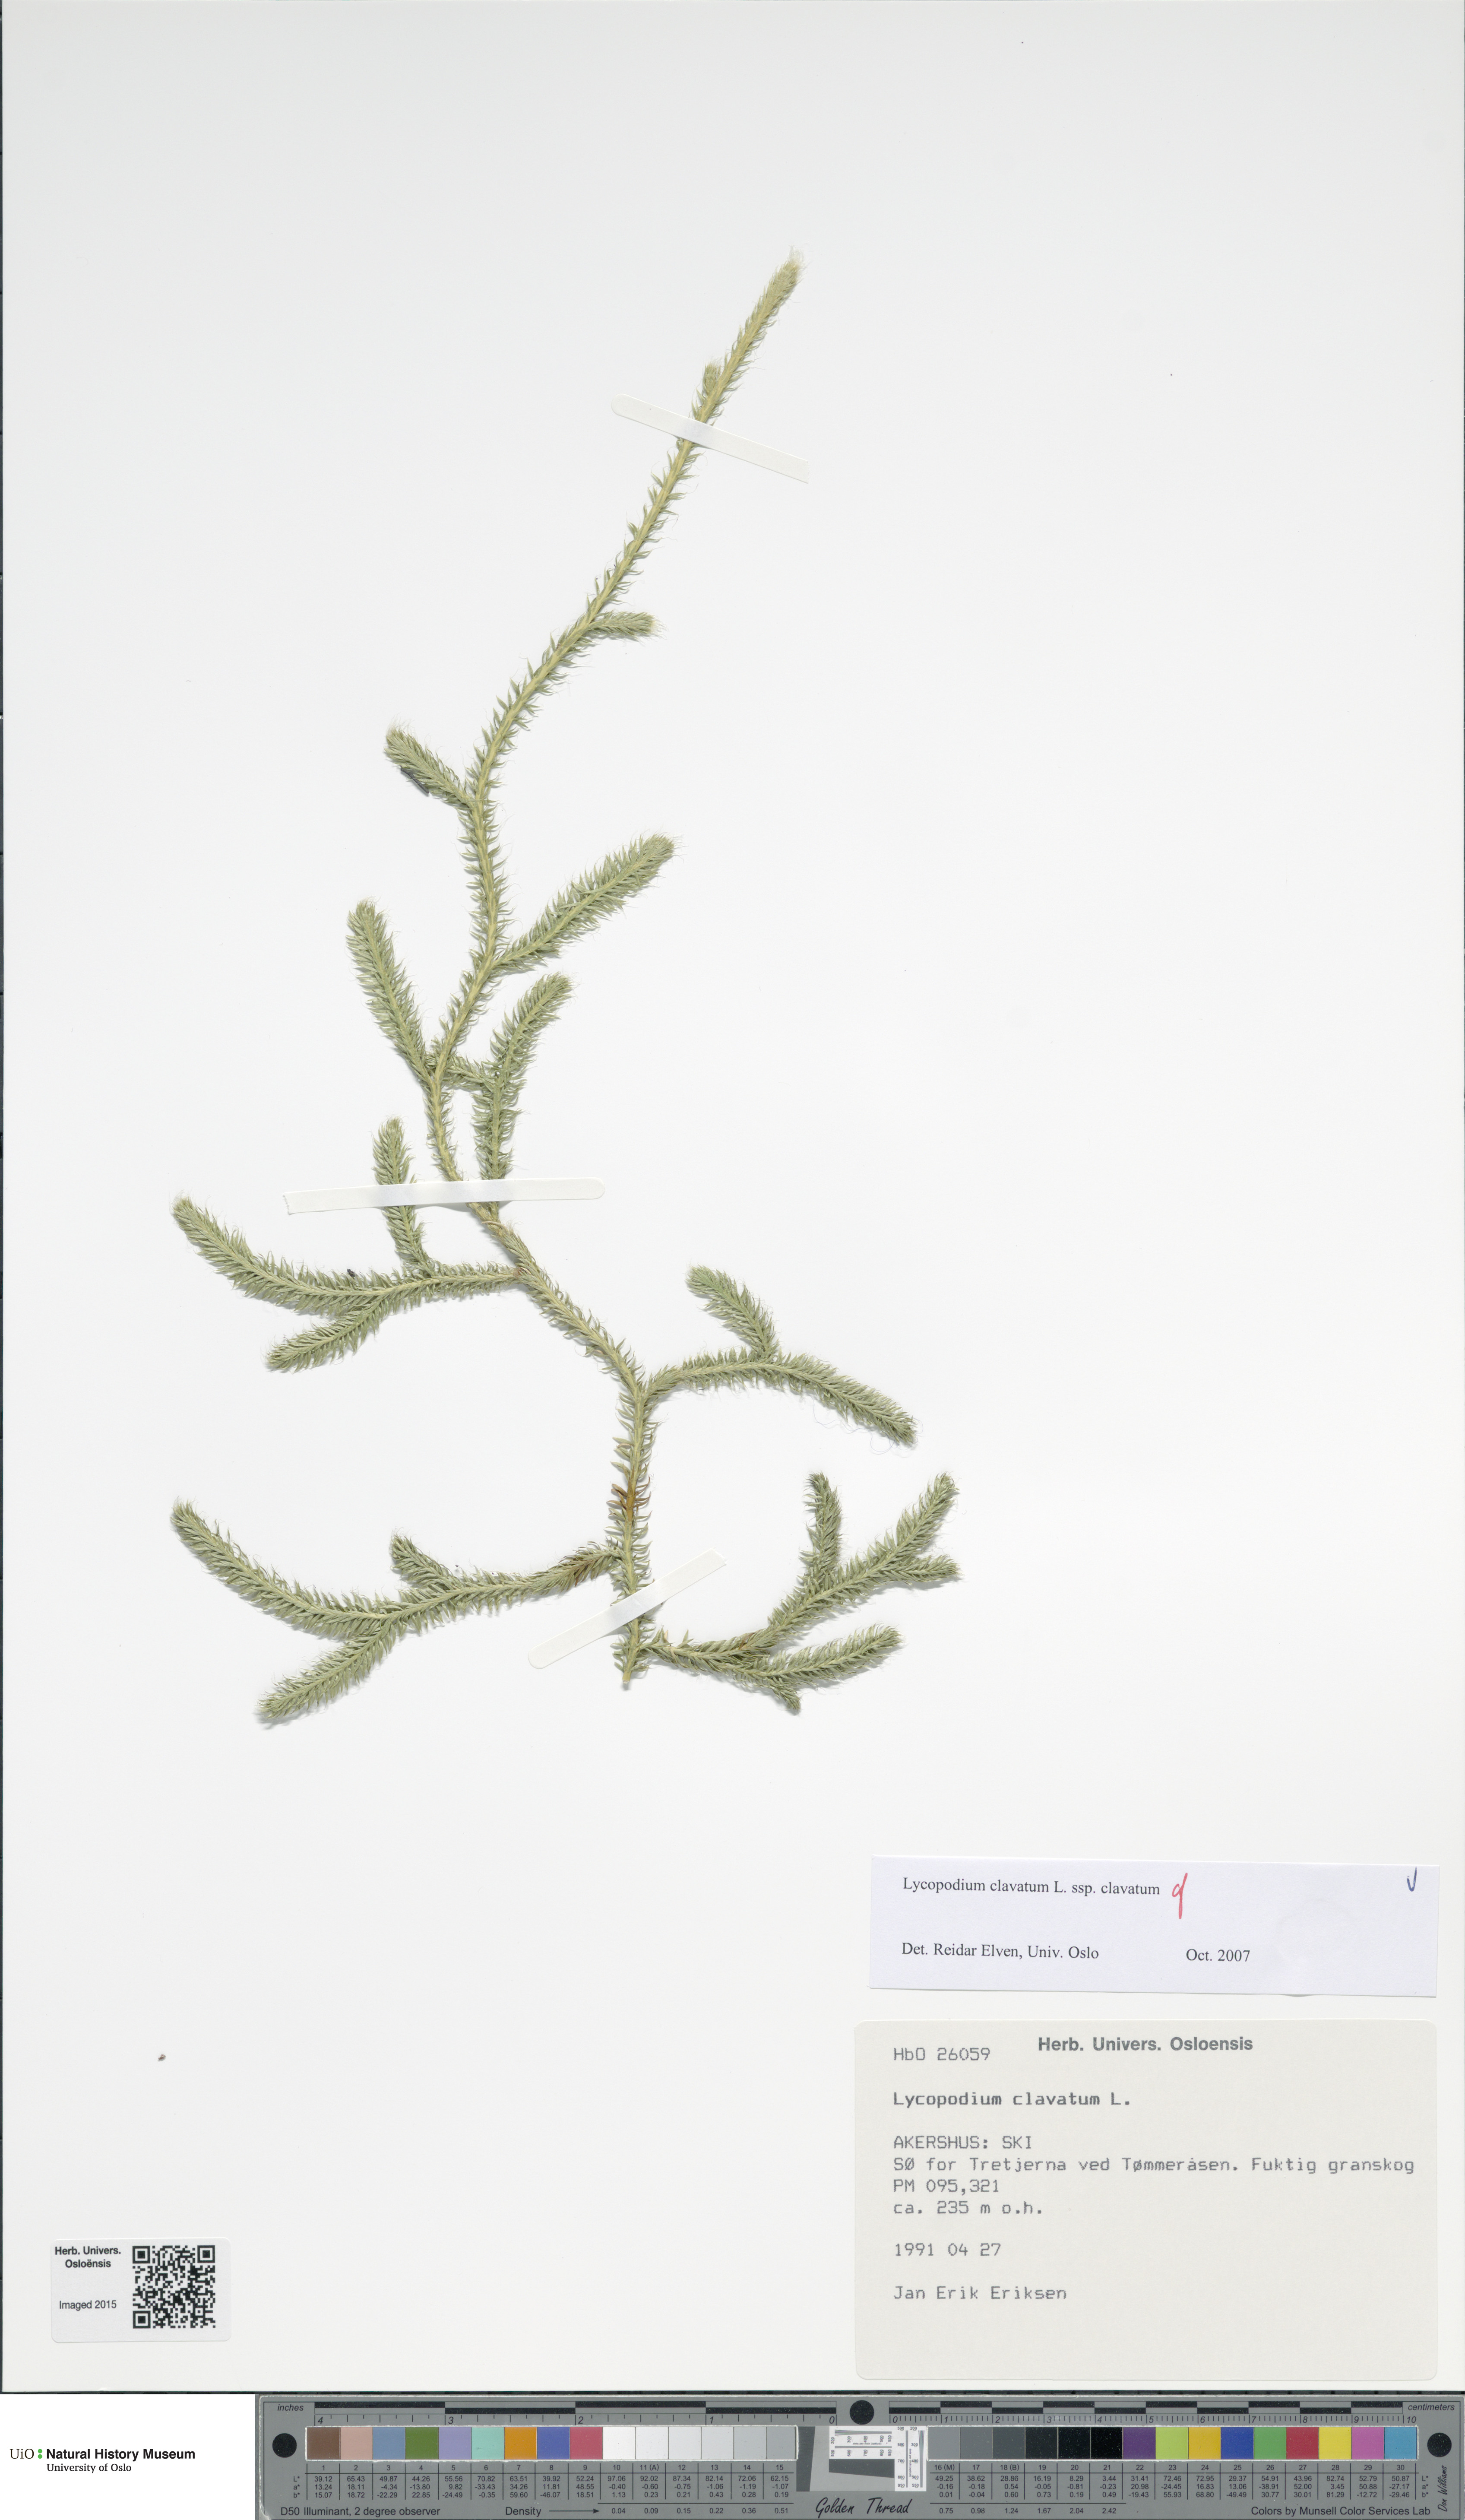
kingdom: Plantae
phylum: Tracheophyta
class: Lycopodiopsida
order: Lycopodiales
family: Lycopodiaceae
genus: Lycopodium
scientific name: Lycopodium clavatum
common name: Stag's-horn clubmoss
